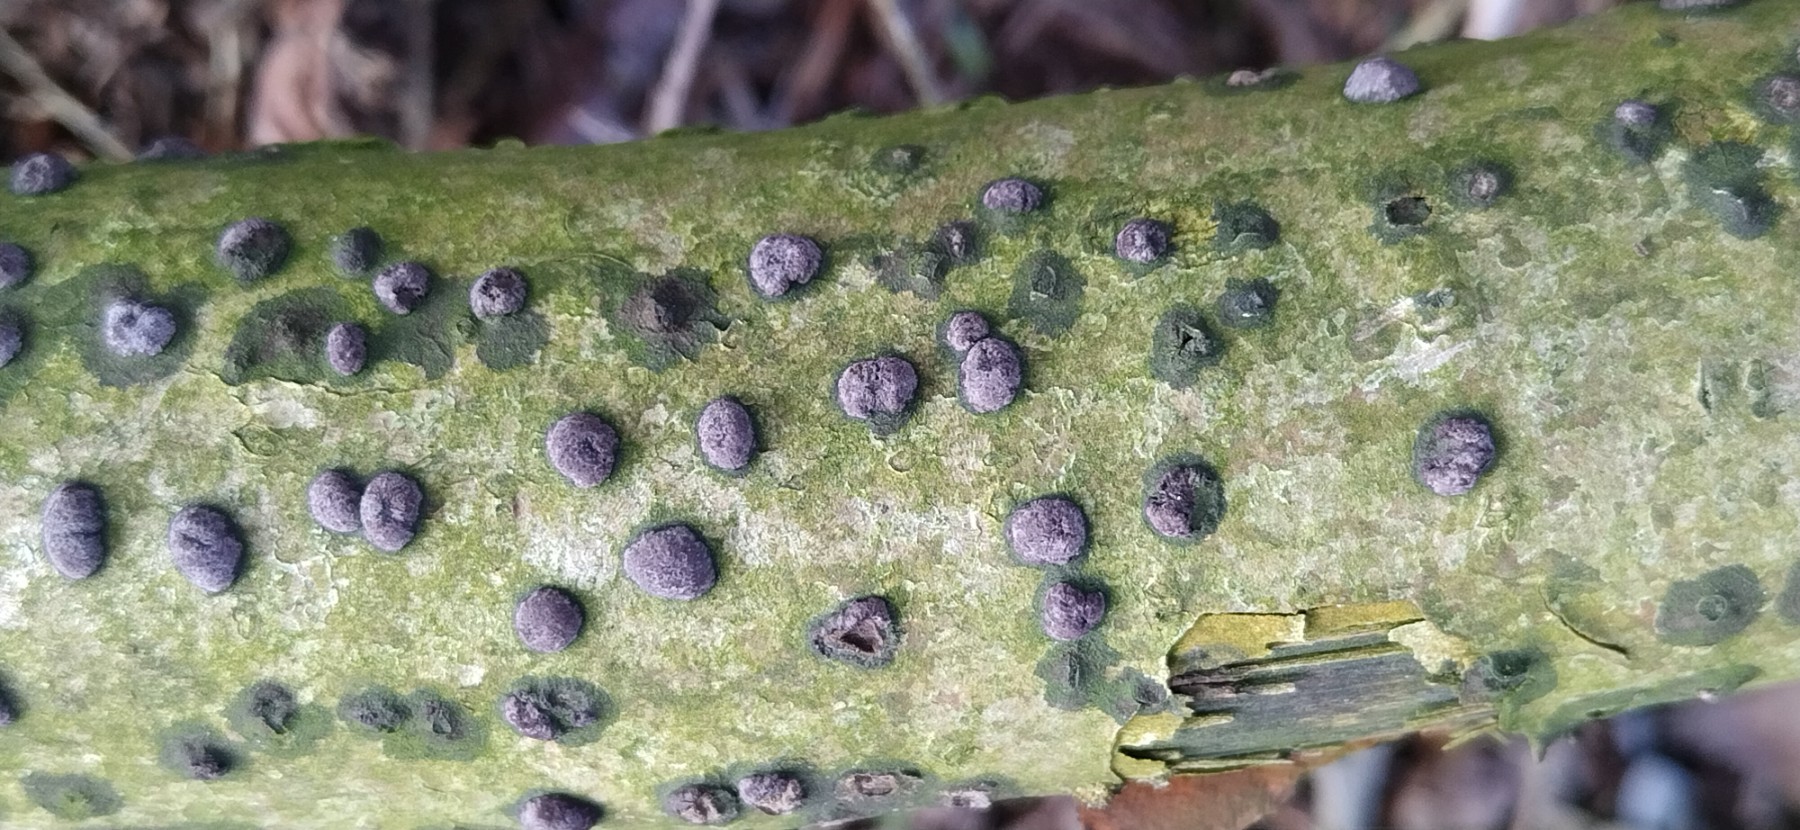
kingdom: Fungi
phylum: Ascomycota
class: Sordariomycetes
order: Xylariales
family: Hypoxylaceae
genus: Hypoxylon
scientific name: Hypoxylon fuscum
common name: kegleformet kulbær
